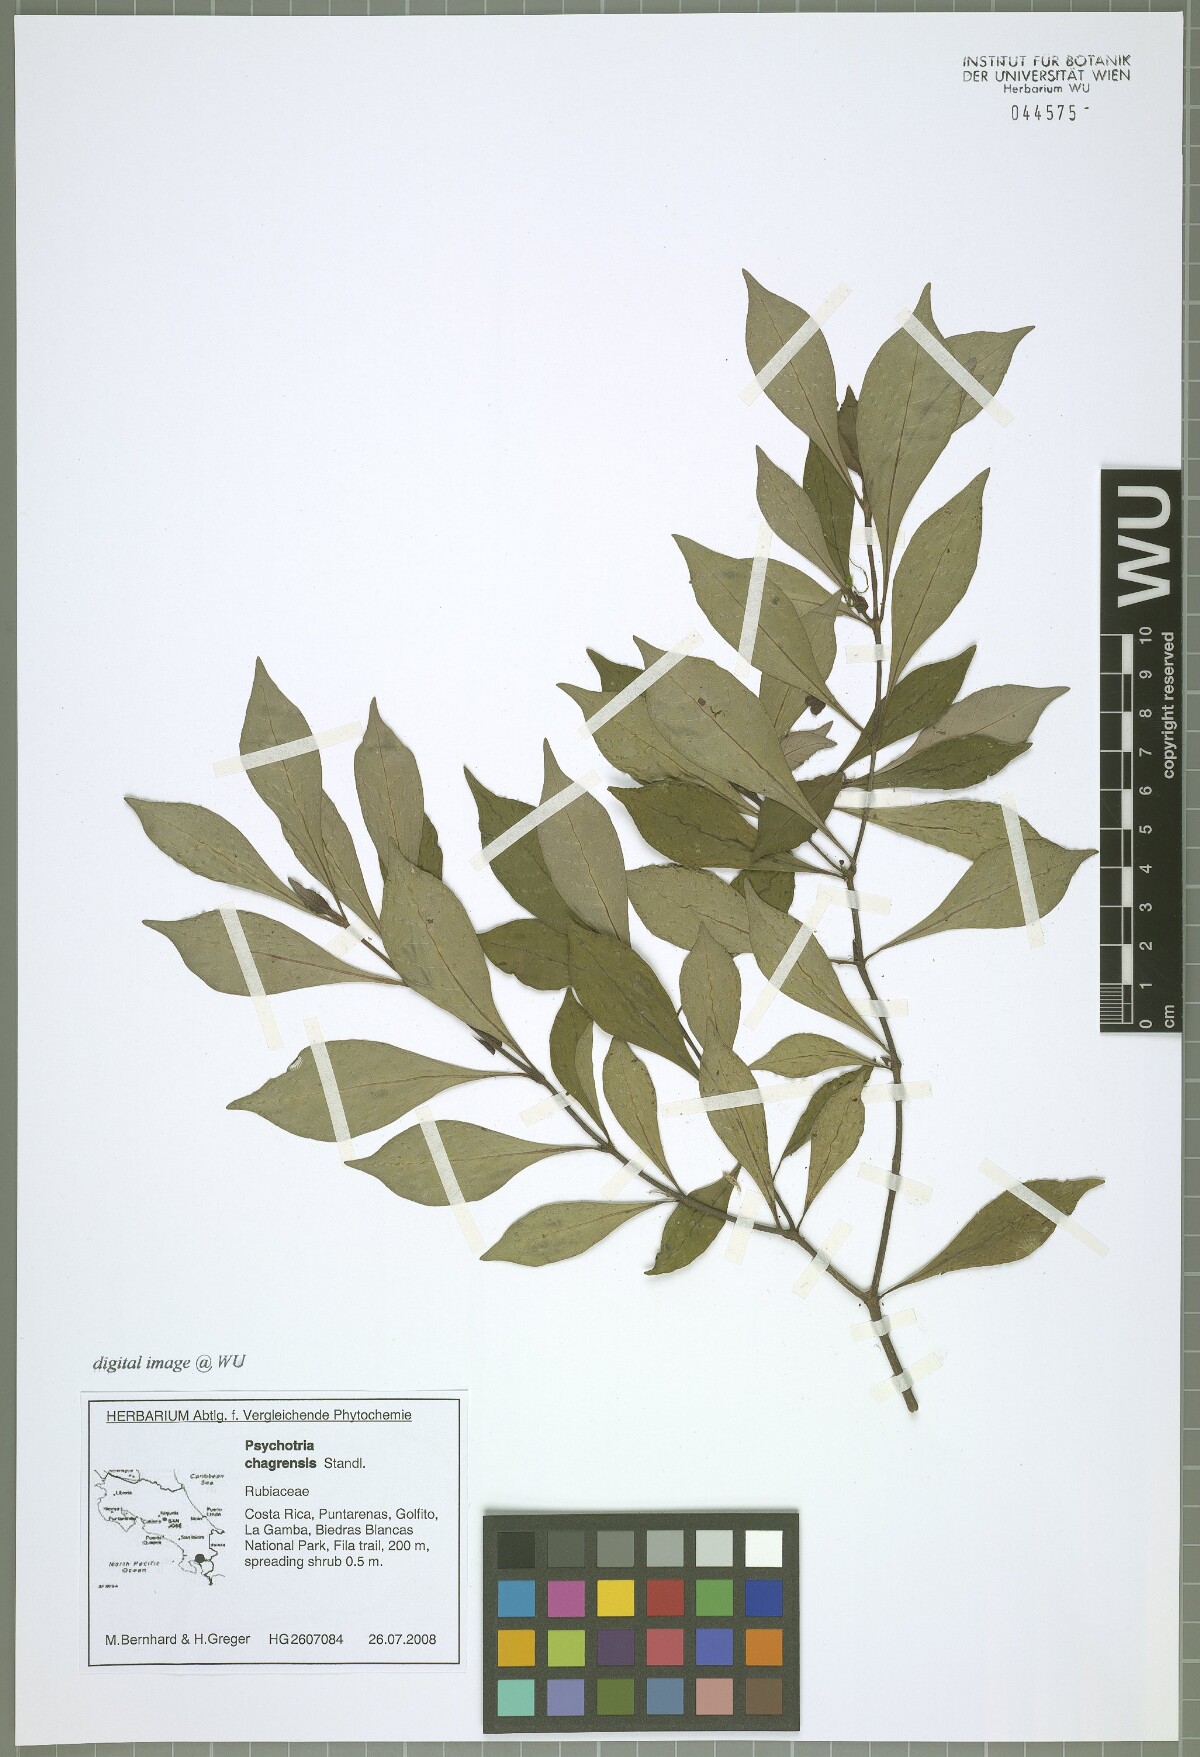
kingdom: Plantae
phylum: Tracheophyta
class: Magnoliopsida
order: Gentianales
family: Rubiaceae
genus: Psychotria
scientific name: Psychotria chagrensis
